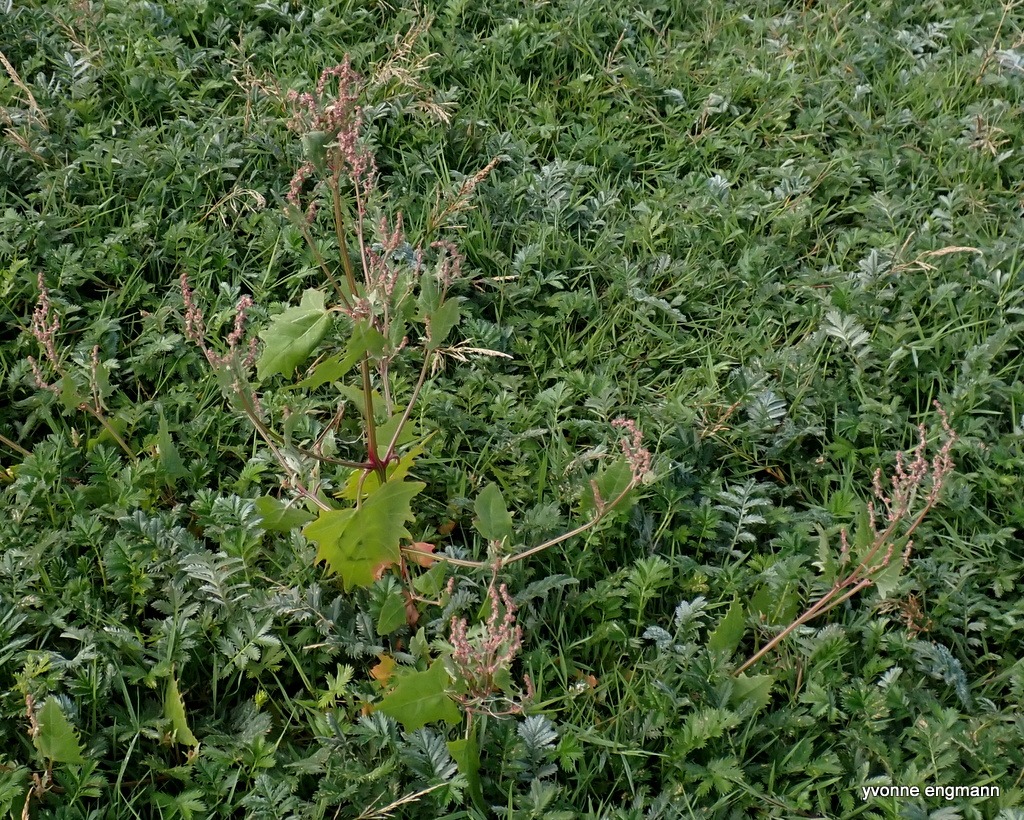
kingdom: Plantae
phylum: Tracheophyta
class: Magnoliopsida
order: Caryophyllales
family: Amaranthaceae
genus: Atriplex
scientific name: Atriplex calotheca
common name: Skønbægret mælde
